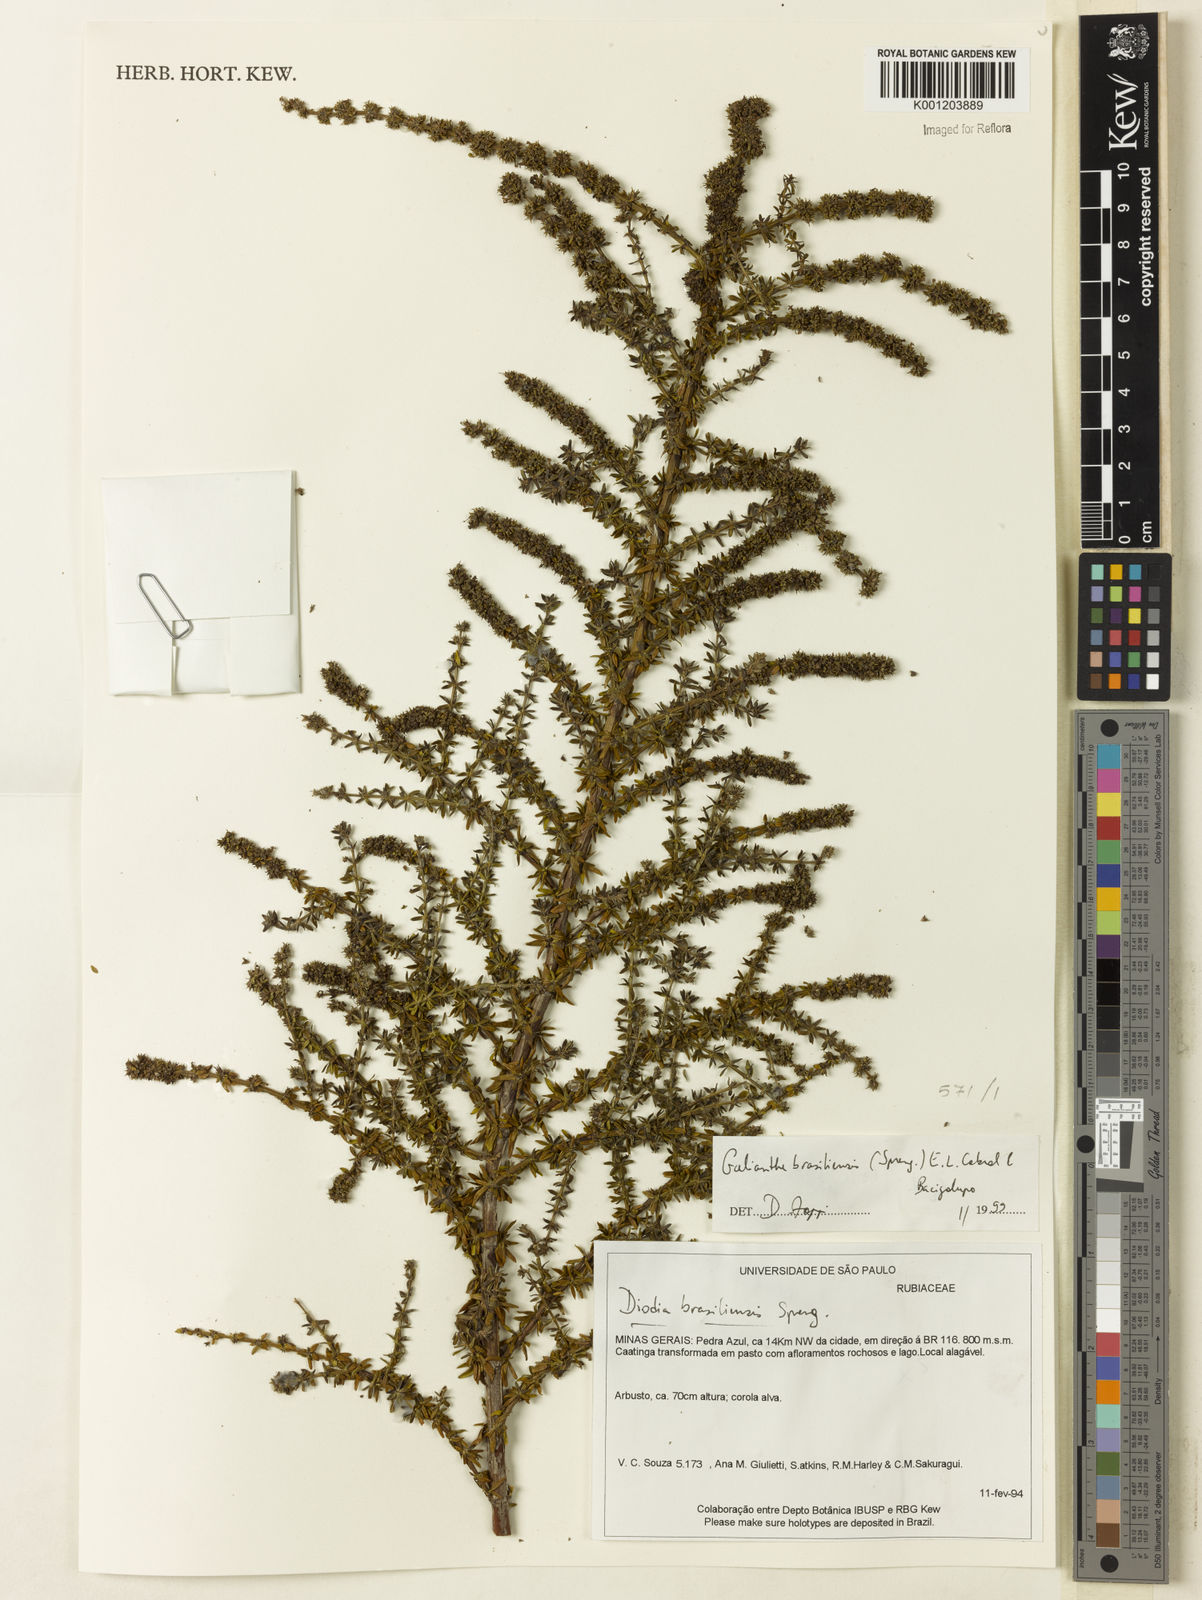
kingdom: Plantae
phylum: Tracheophyta
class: Magnoliopsida
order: Gentianales
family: Rubiaceae
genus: Galianthe
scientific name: Galianthe brasiliensis
